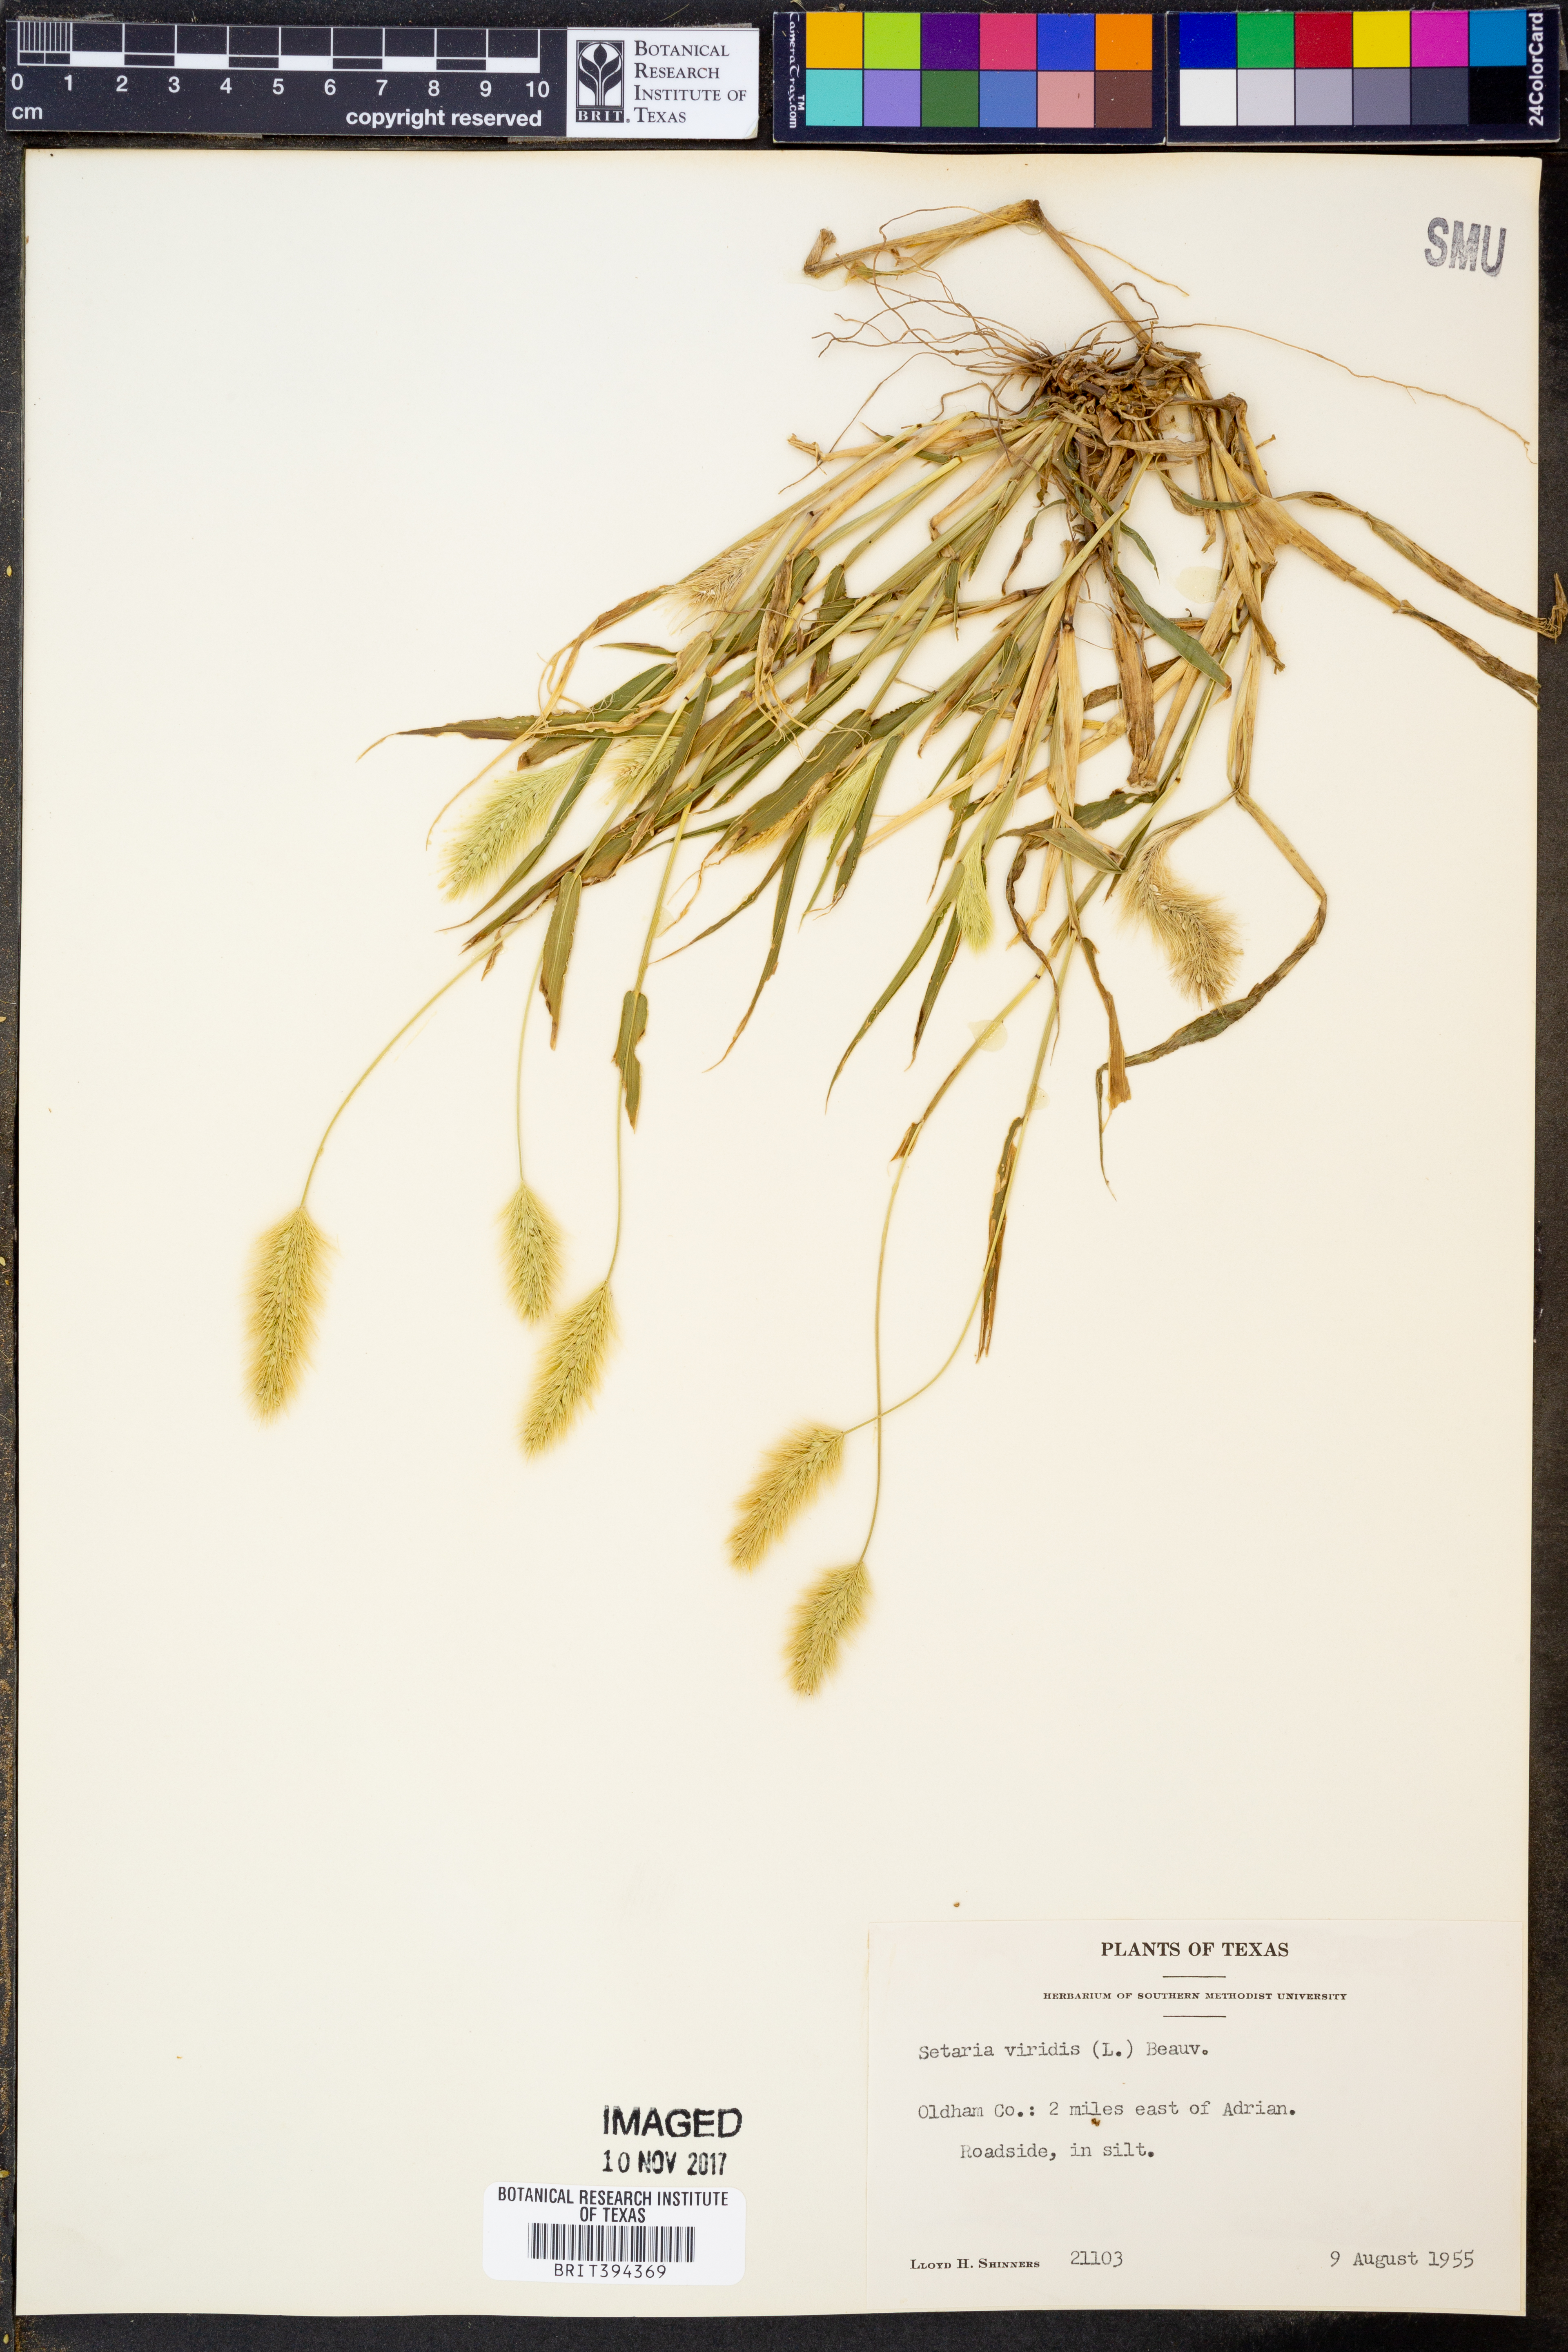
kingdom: Plantae
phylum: Tracheophyta
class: Liliopsida
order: Poales
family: Poaceae
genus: Setaria
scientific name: Setaria viridis
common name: Green bristlegrass
